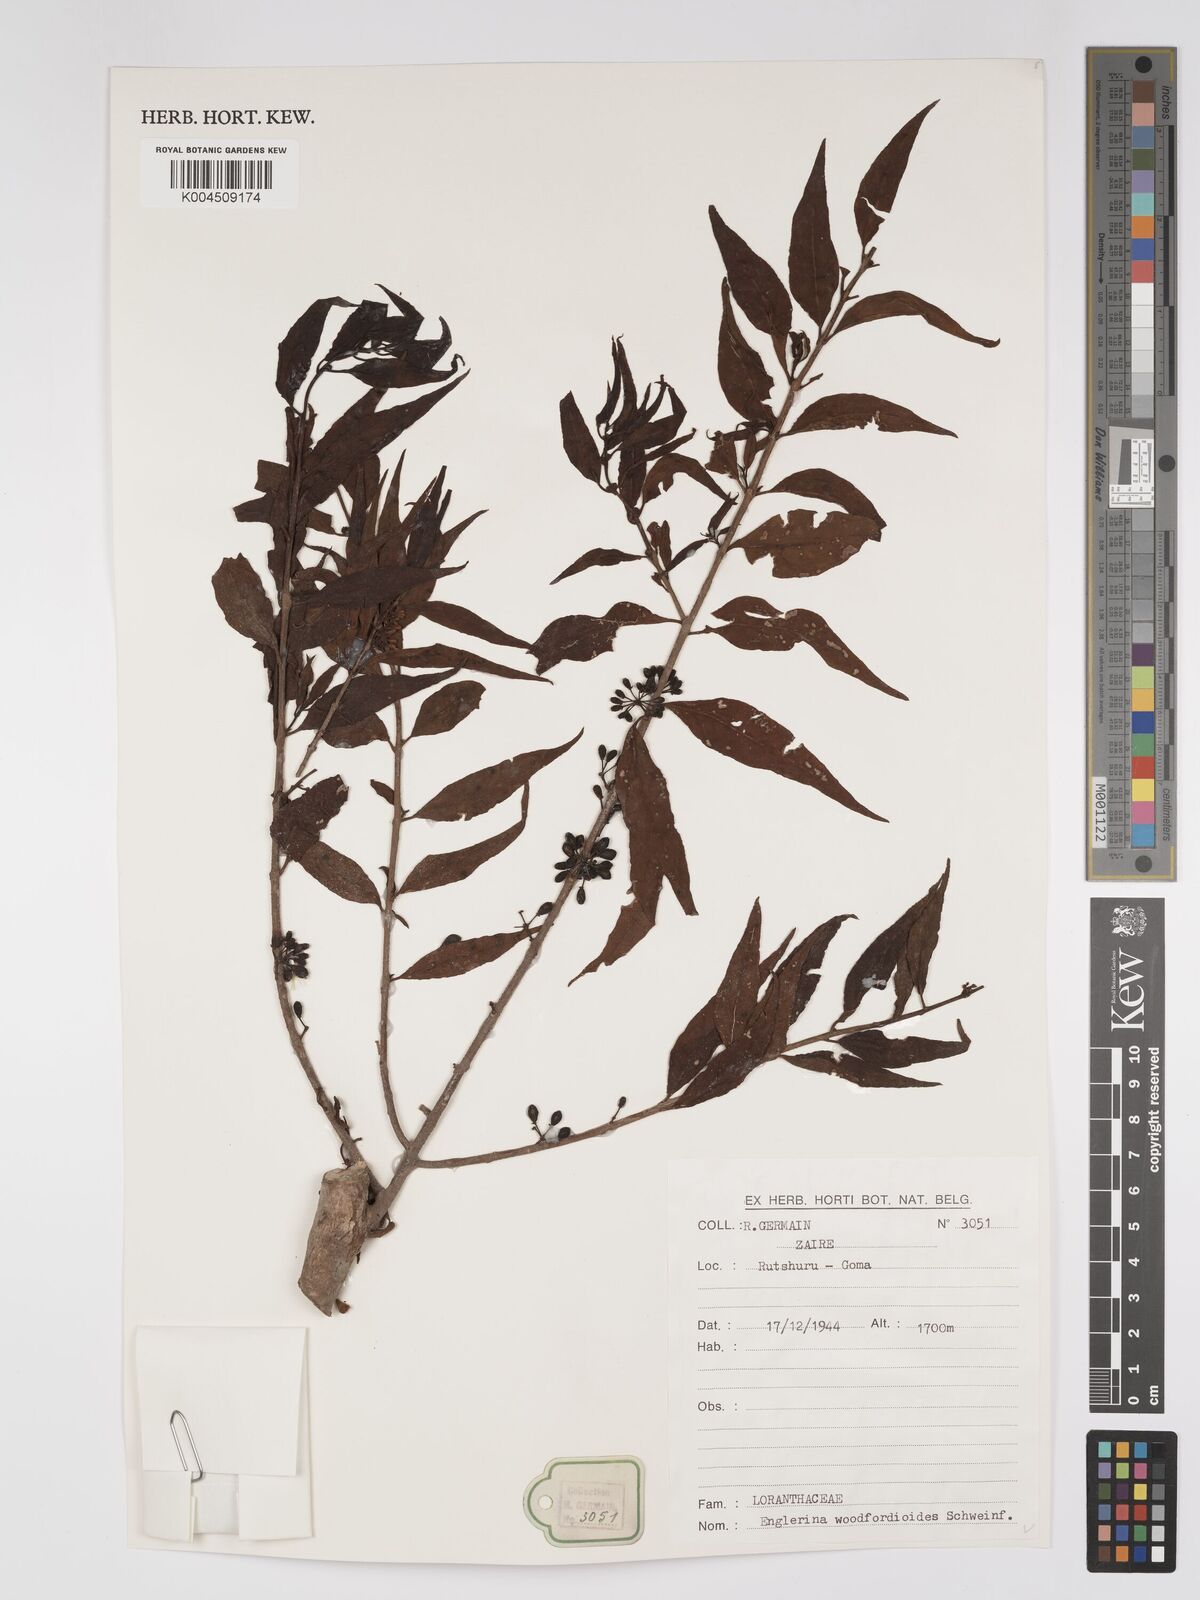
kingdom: Plantae
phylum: Tracheophyta
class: Magnoliopsida
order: Santalales
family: Loranthaceae
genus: Englerina
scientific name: Englerina woodfordioides
